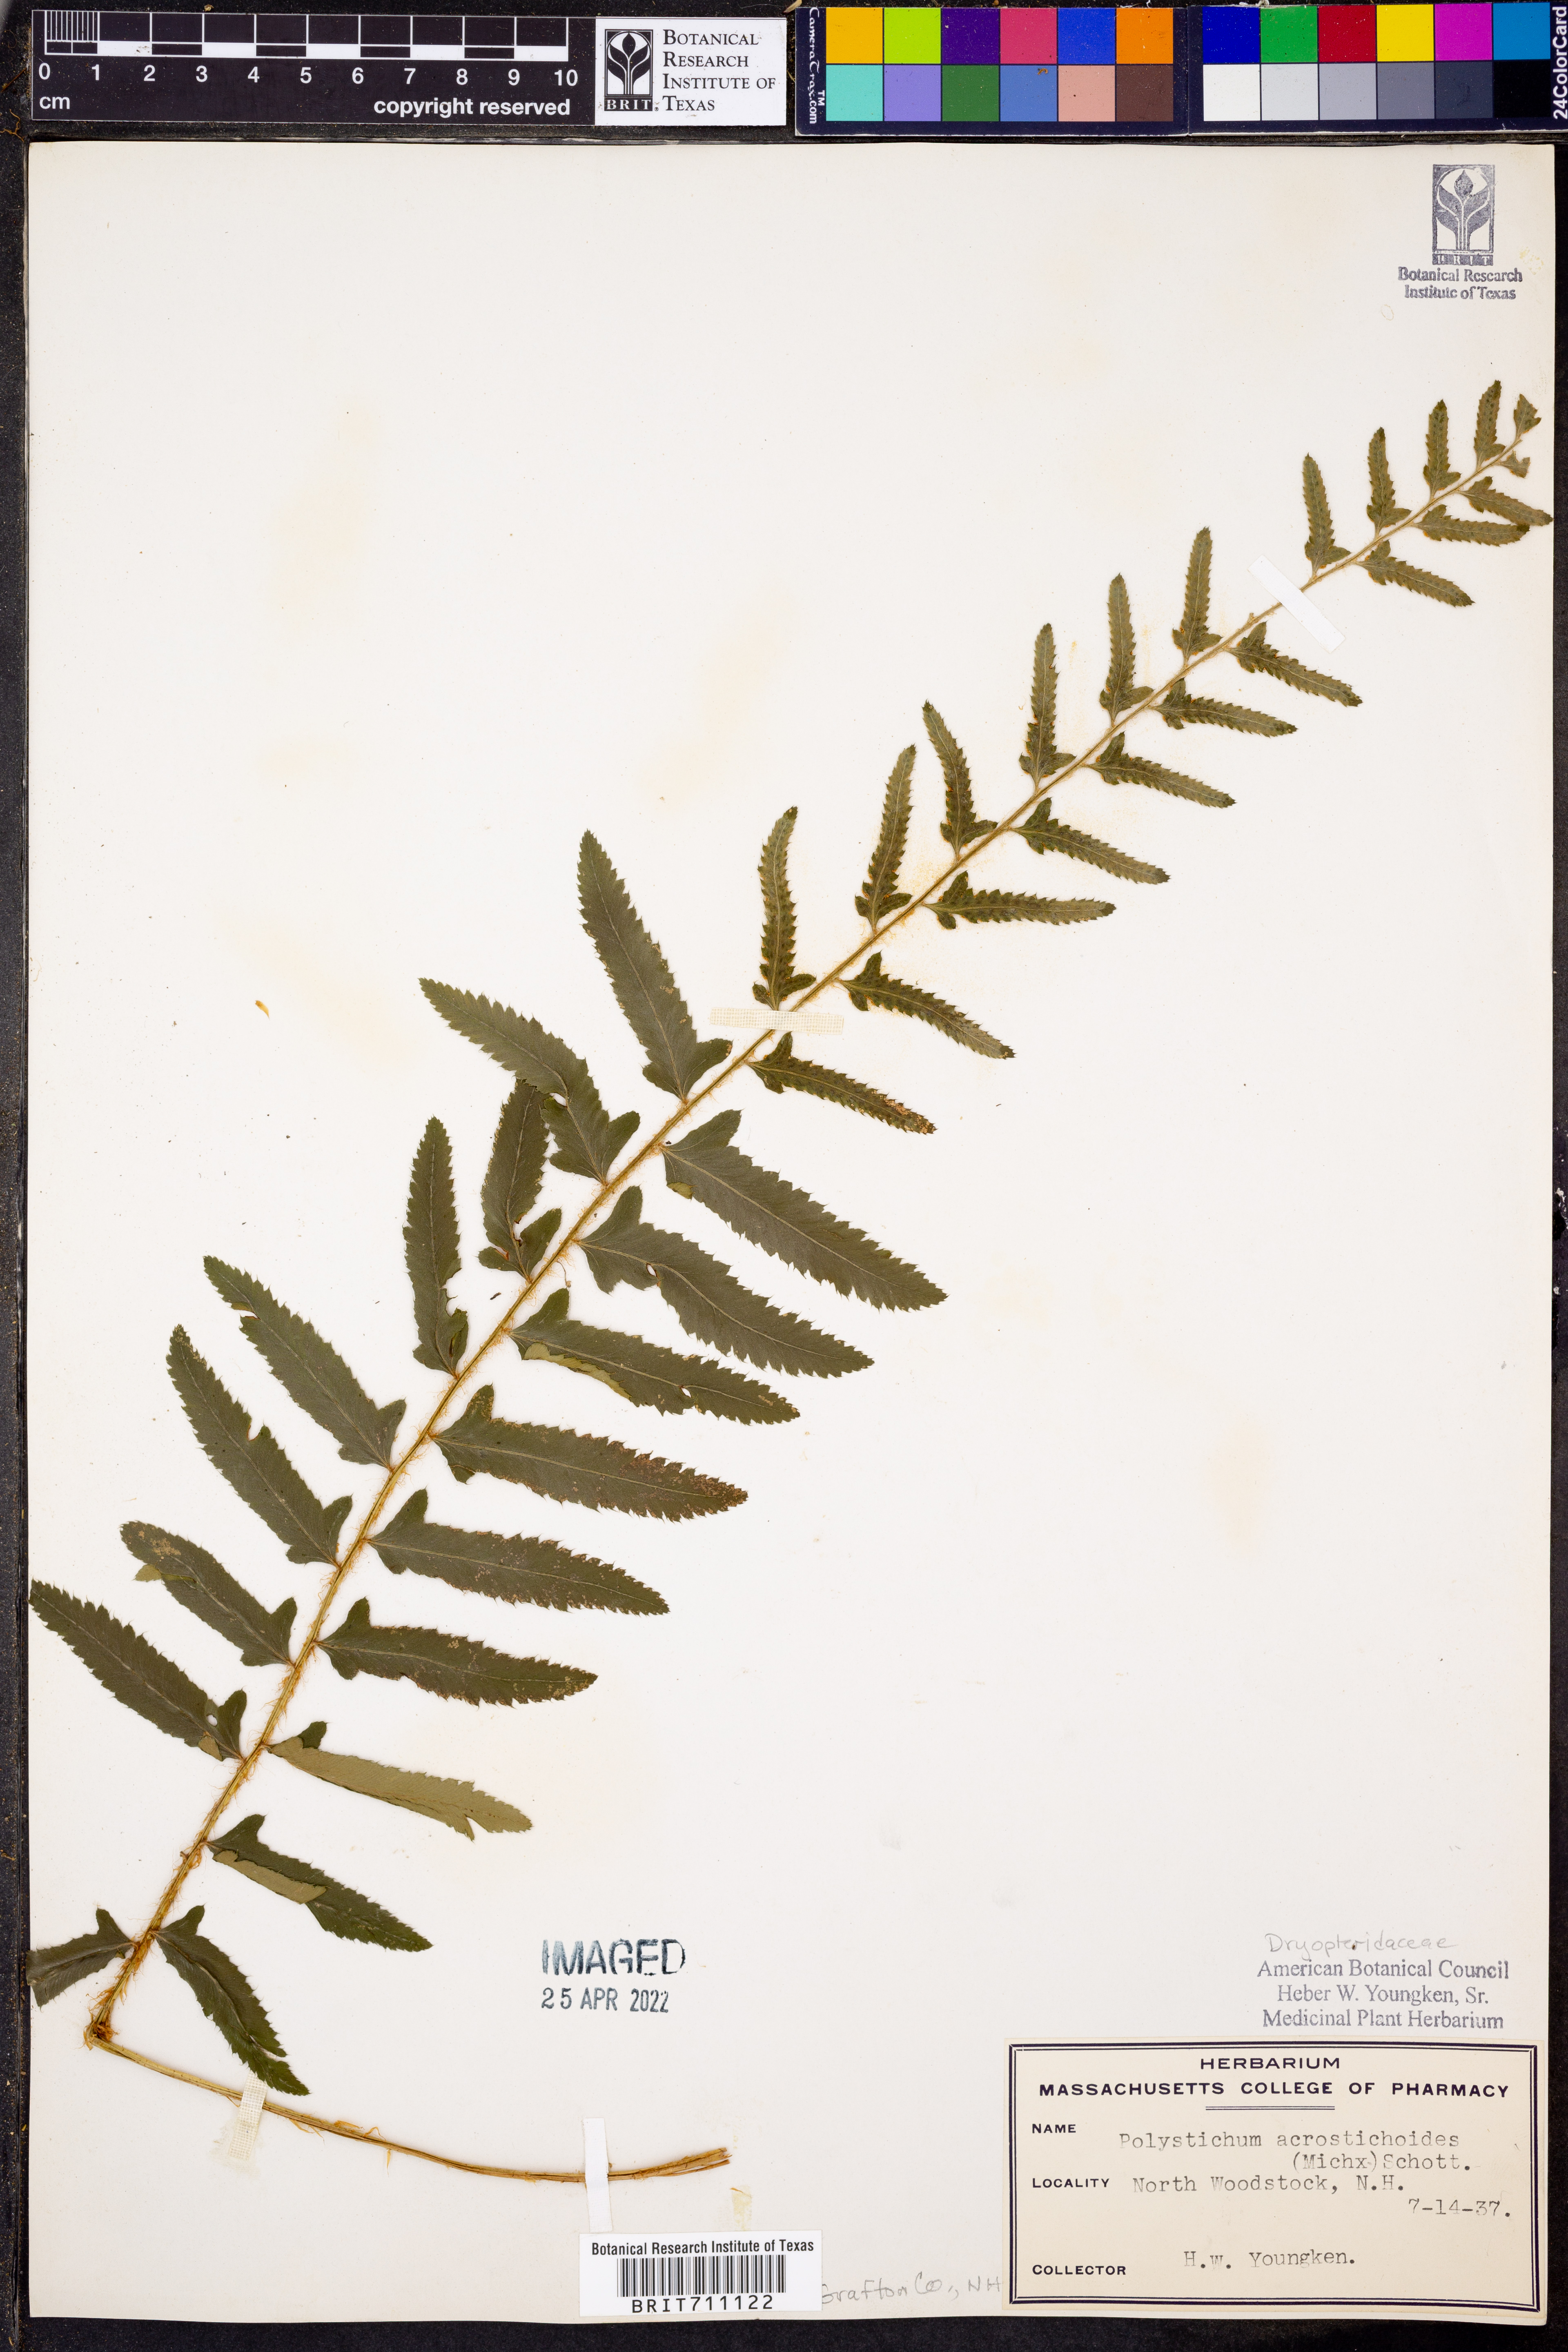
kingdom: Plantae
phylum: Tracheophyta
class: Polypodiopsida
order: Polypodiales
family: Dryopteridaceae
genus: Polystichum
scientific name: Polystichum acrostichoides
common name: Christmas fern
